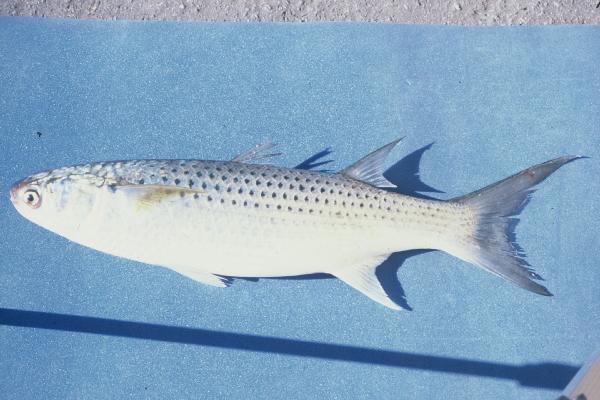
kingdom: Animalia
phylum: Chordata
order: Mugiliformes
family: Mugilidae
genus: Crenimugil
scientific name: Crenimugil buchanani
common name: Bluetail mullet
